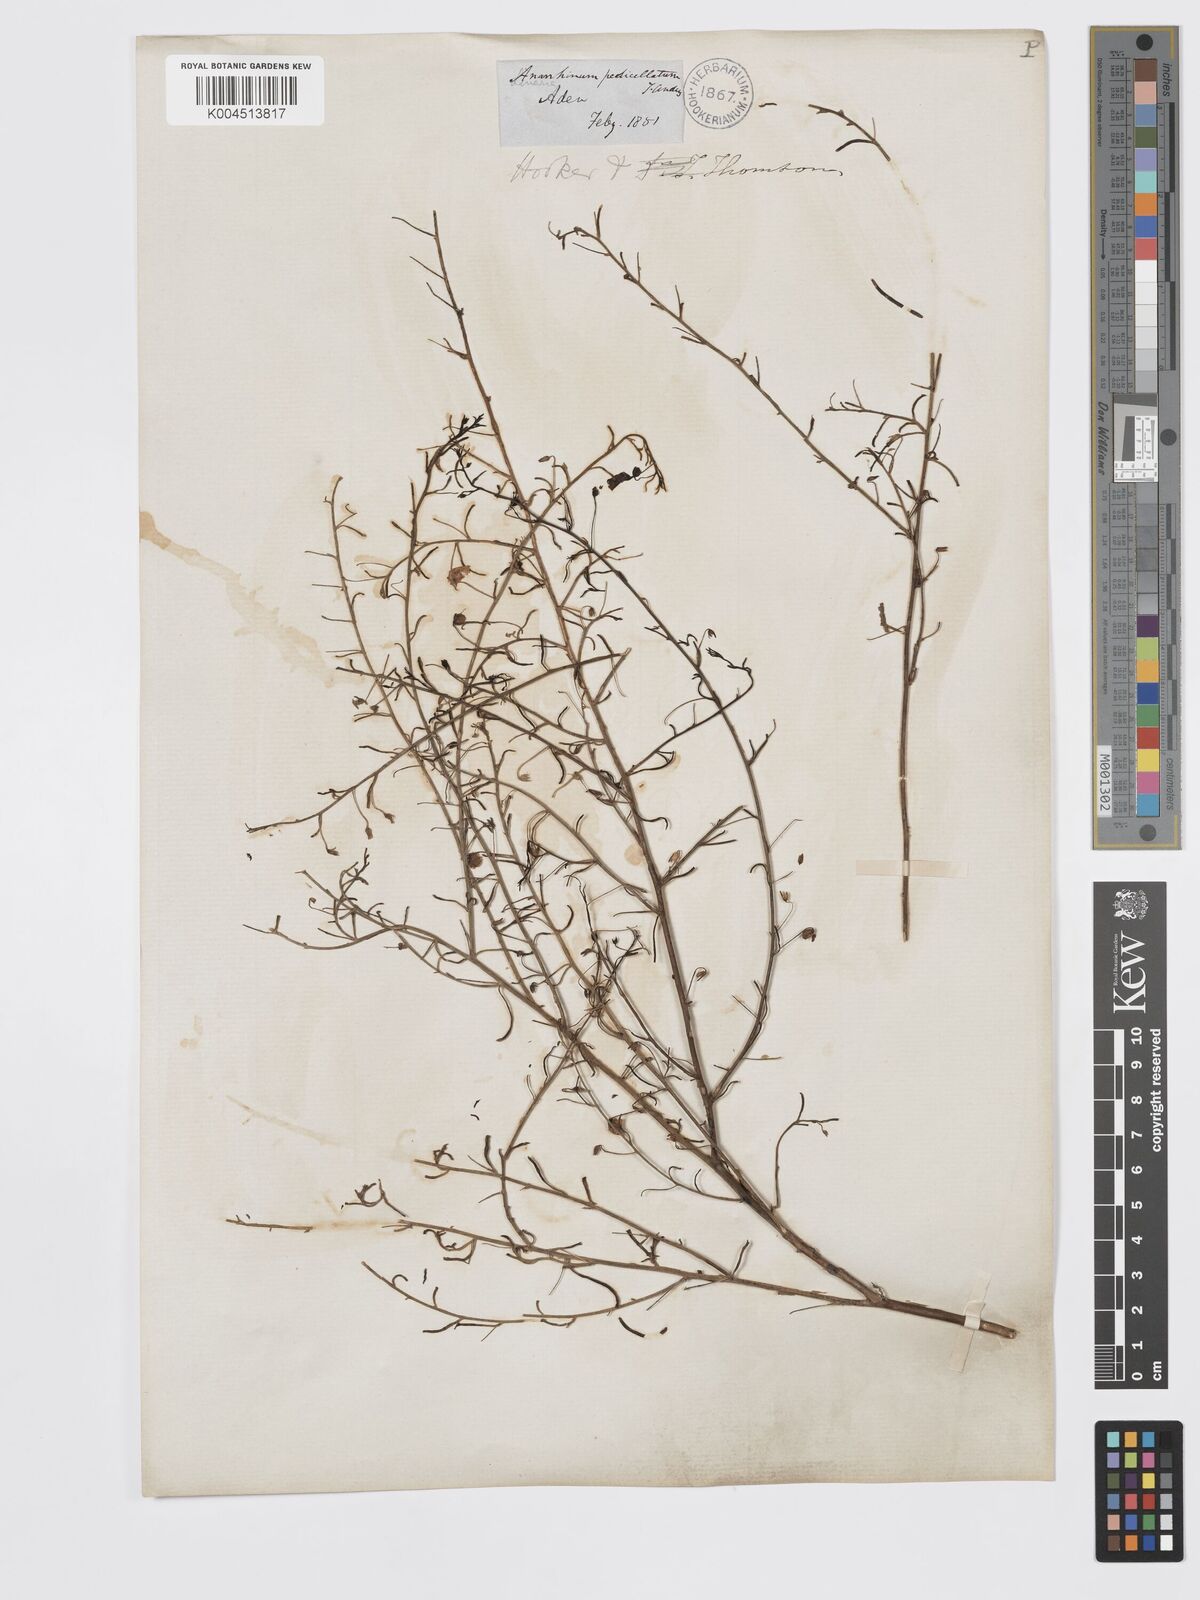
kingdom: Plantae
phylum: Tracheophyta
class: Magnoliopsida
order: Lamiales
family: Plantaginaceae
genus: Schweinfurthia
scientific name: Schweinfurthia pedicellata
